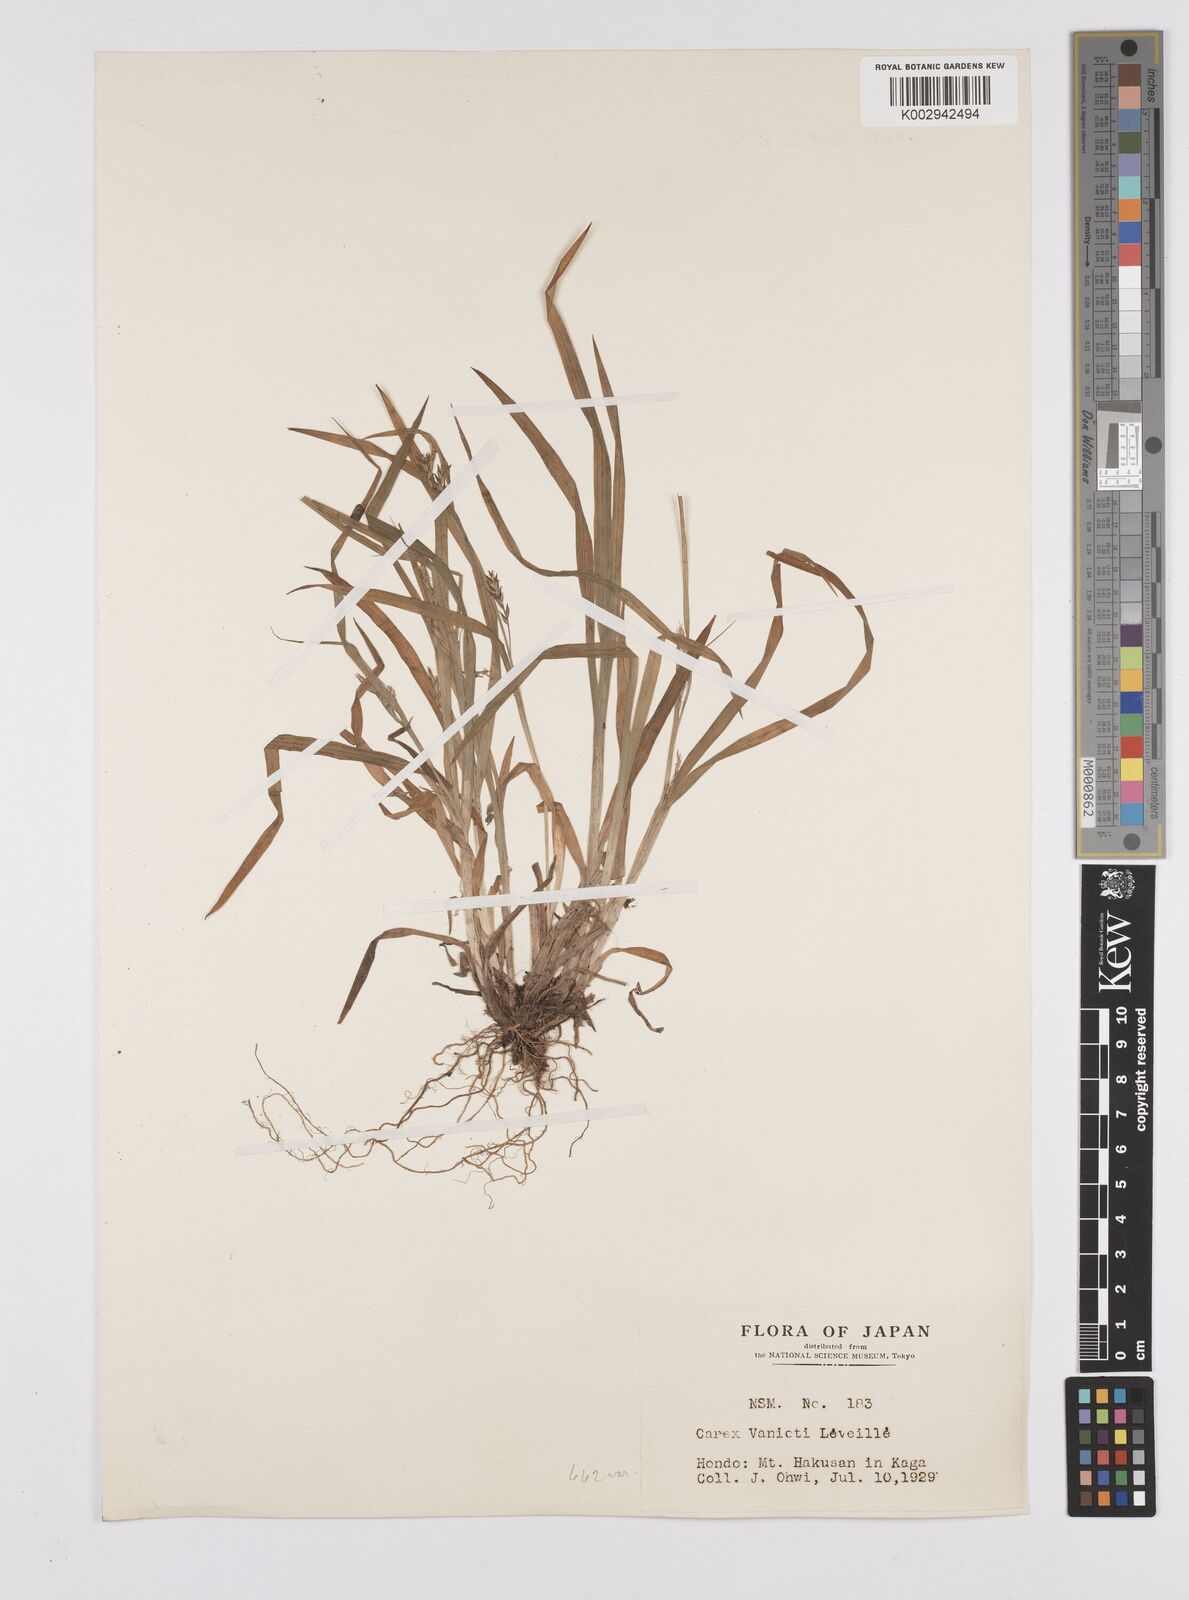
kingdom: Plantae
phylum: Tracheophyta
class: Liliopsida
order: Poales
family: Cyperaceae
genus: Carex
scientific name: Carex latisquamea
